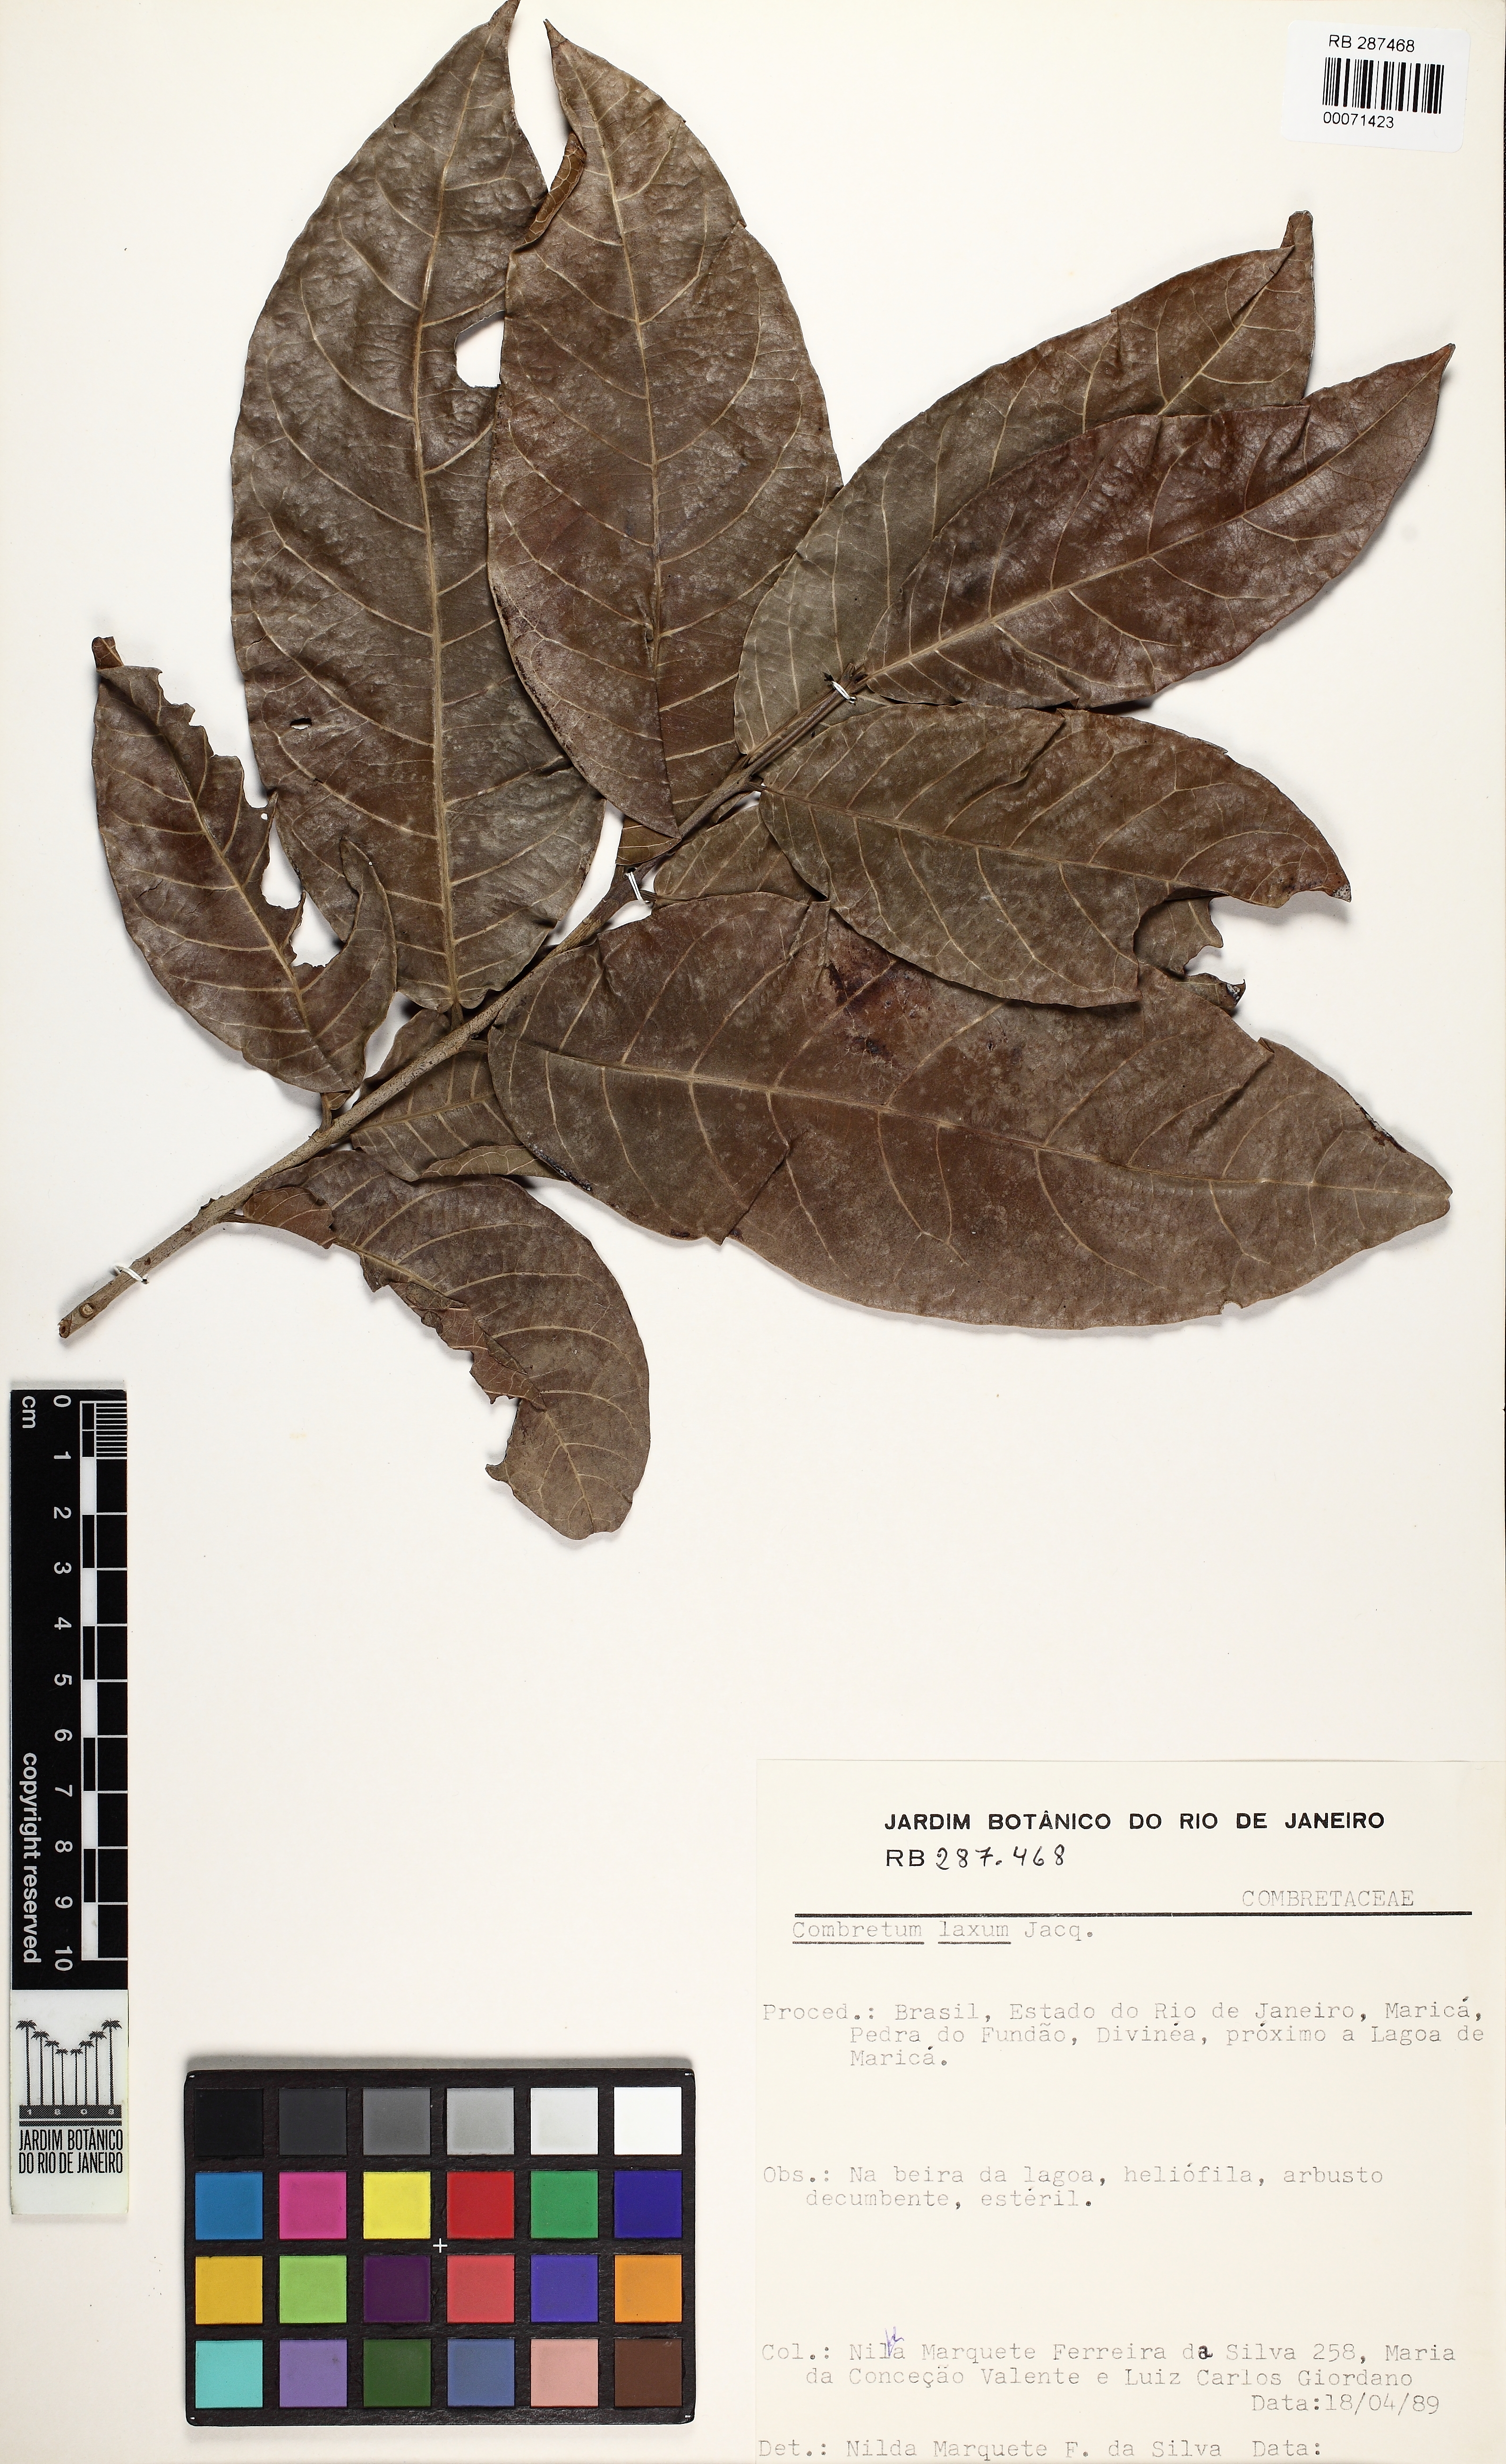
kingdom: Plantae
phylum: Tracheophyta
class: Magnoliopsida
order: Myrtales
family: Combretaceae
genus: Combretum
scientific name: Combretum laxum
